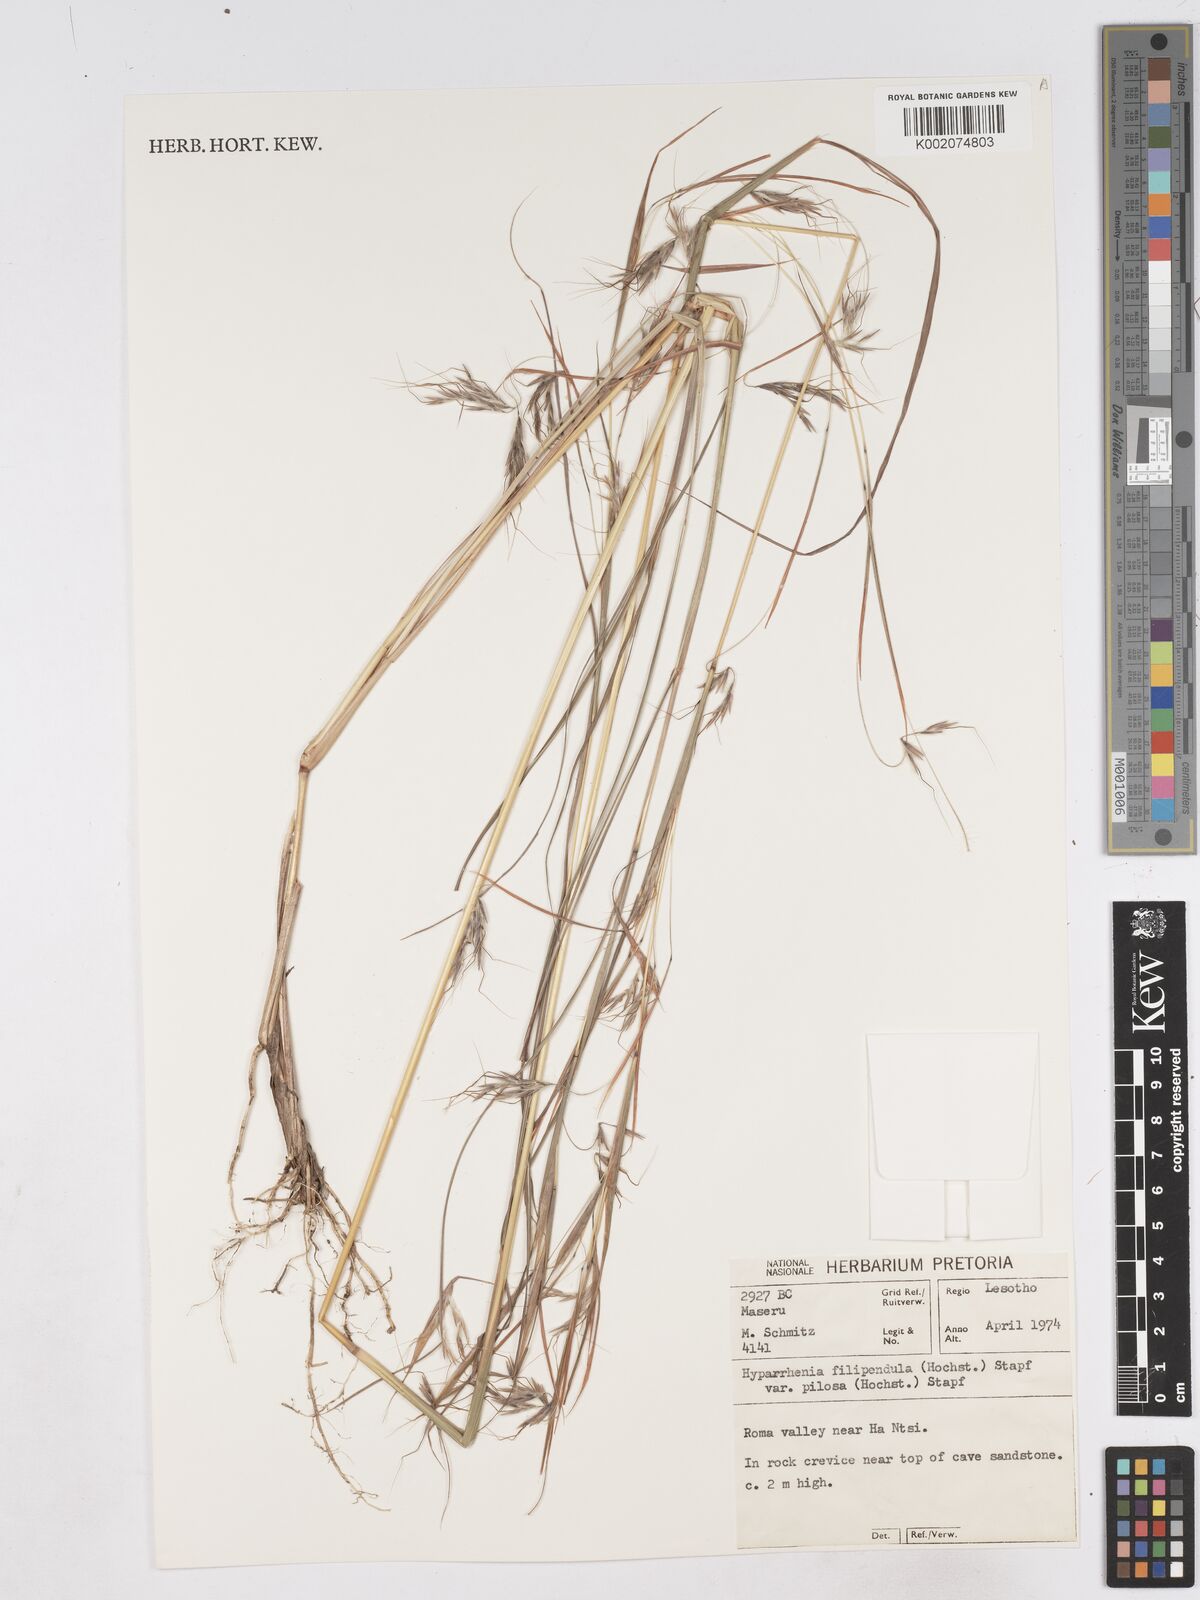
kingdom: Plantae
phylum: Tracheophyta
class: Liliopsida
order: Poales
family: Poaceae
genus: Hyparrhenia
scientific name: Hyparrhenia filipendula
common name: Tambookie grass
